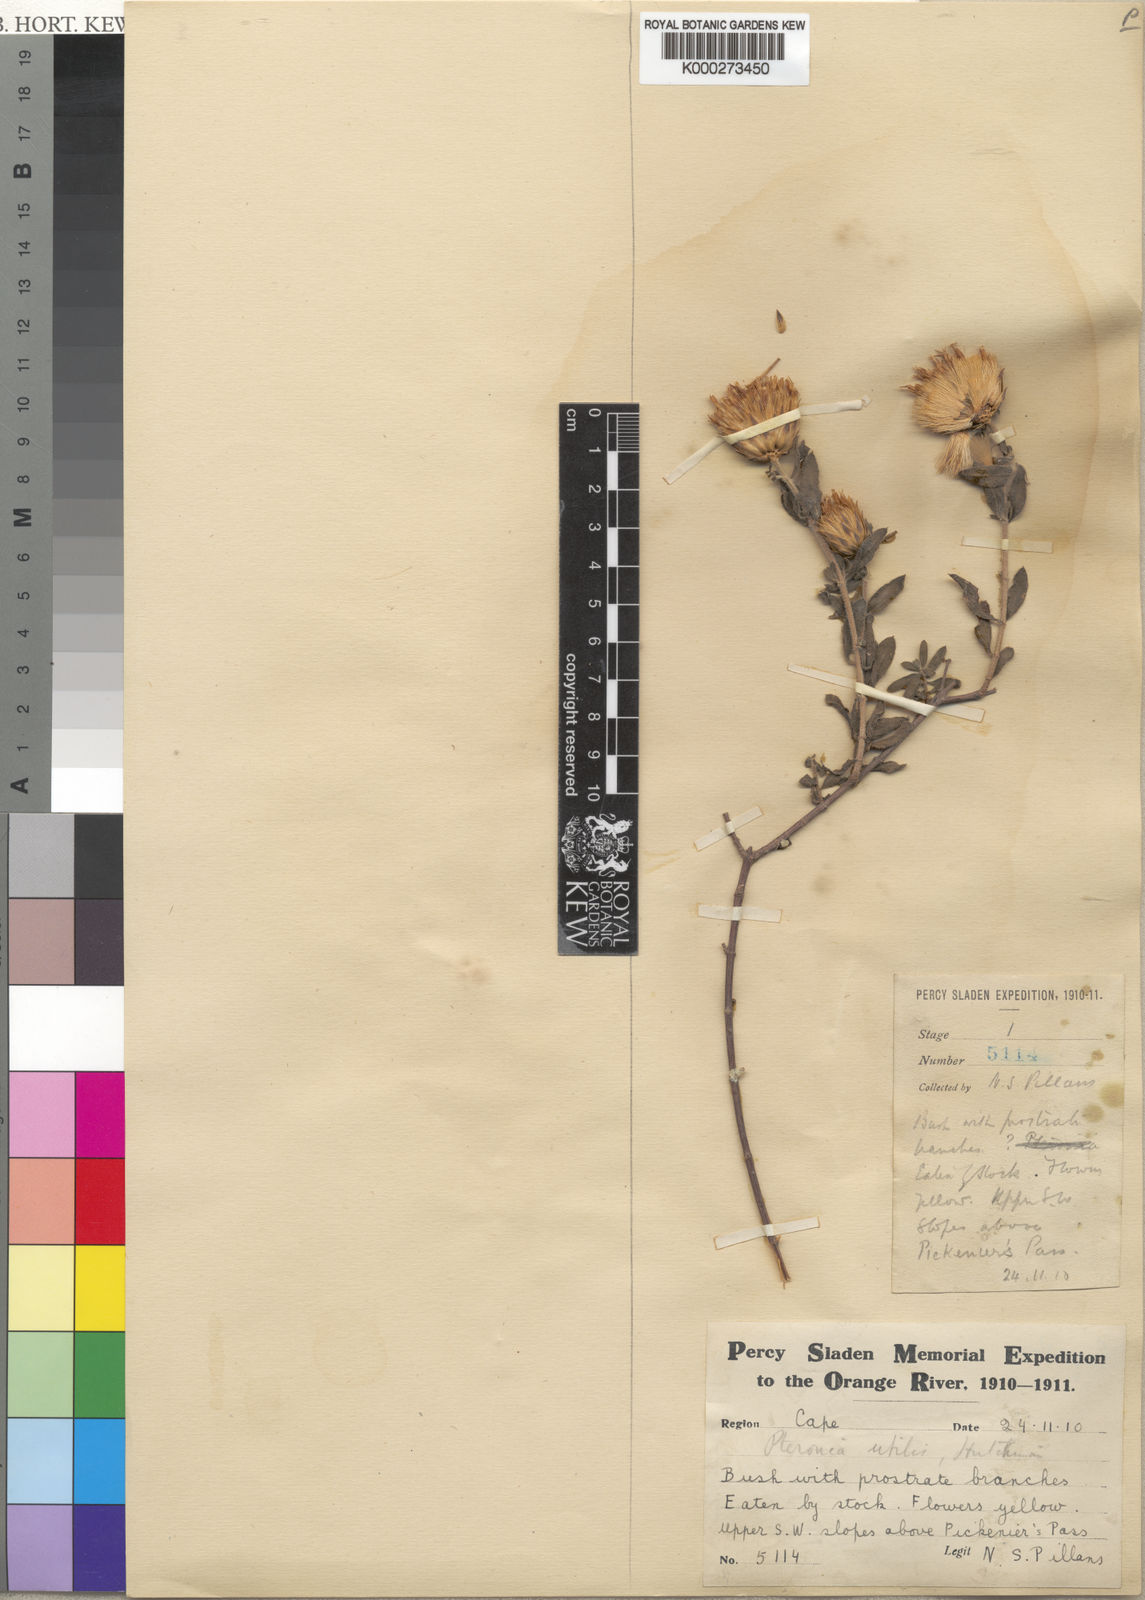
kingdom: Plantae
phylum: Tracheophyta
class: Magnoliopsida
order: Asterales
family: Asteraceae
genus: Pteronia
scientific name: Pteronia utilis
